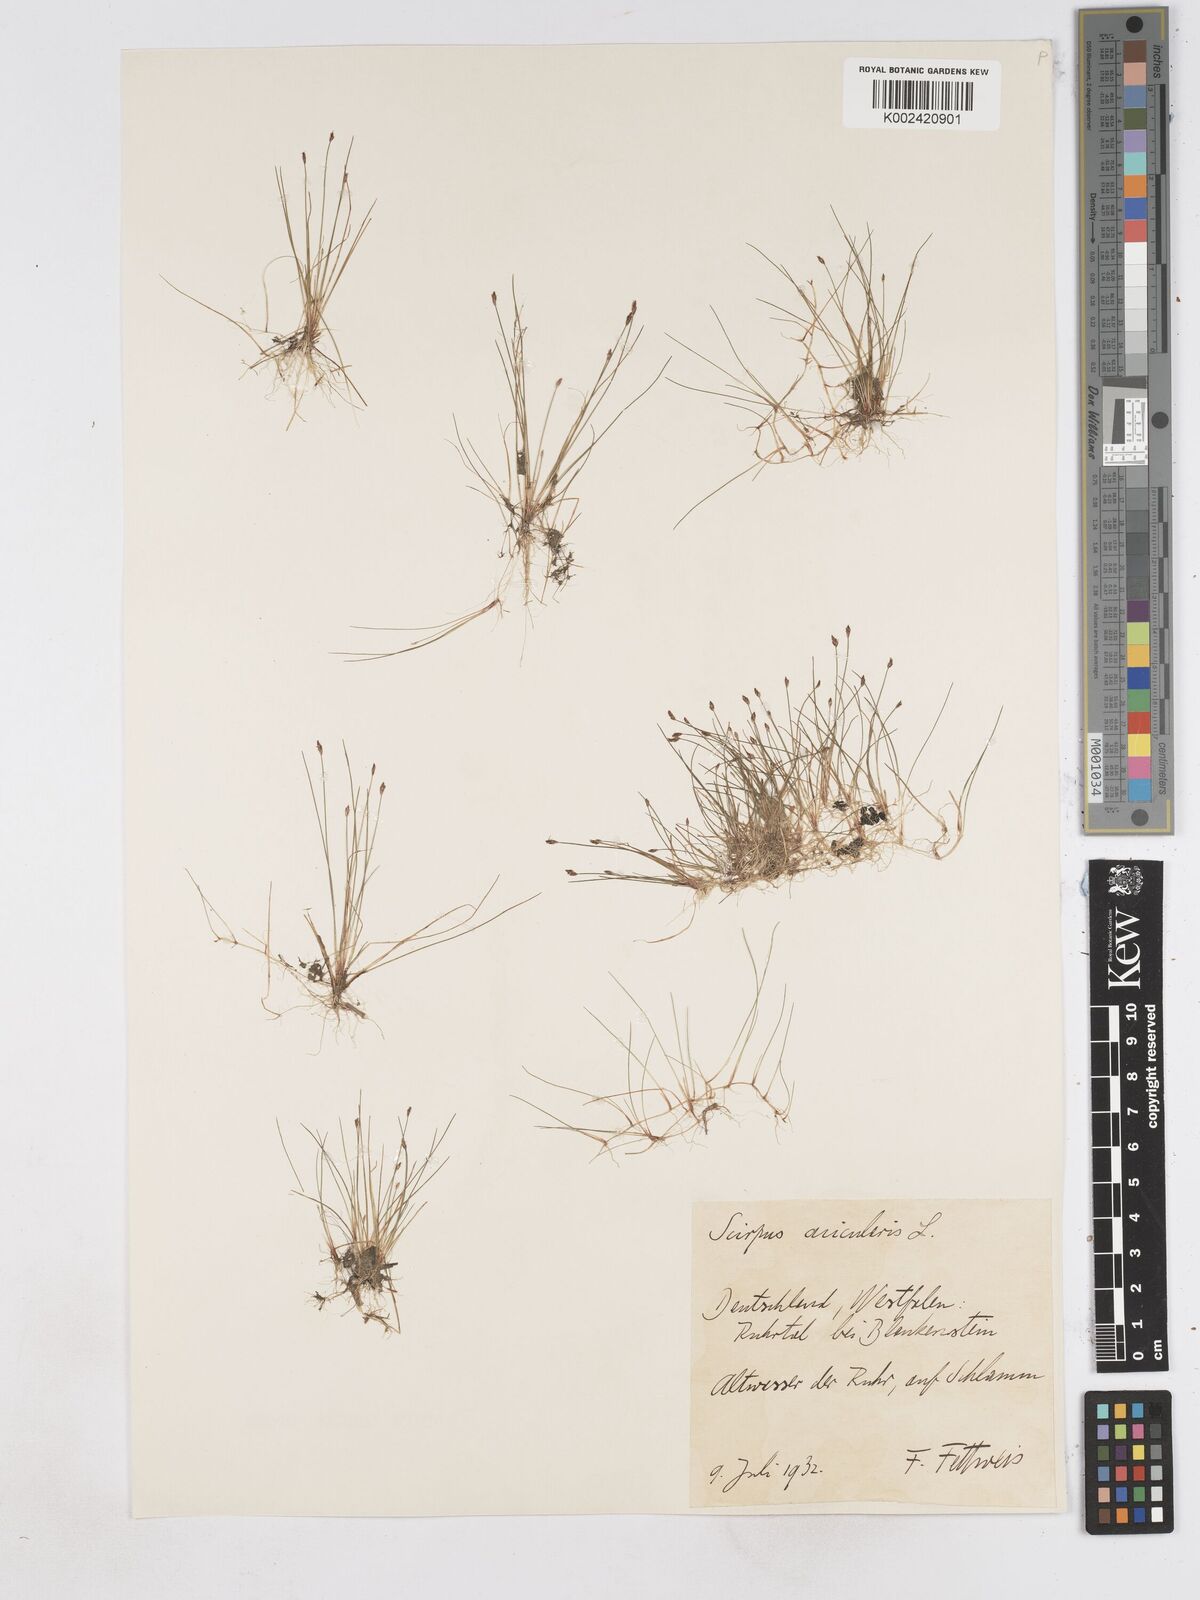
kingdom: Plantae
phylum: Tracheophyta
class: Liliopsida
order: Poales
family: Cyperaceae
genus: Eleocharis
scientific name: Eleocharis acicularis
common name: Needle spike-rush
